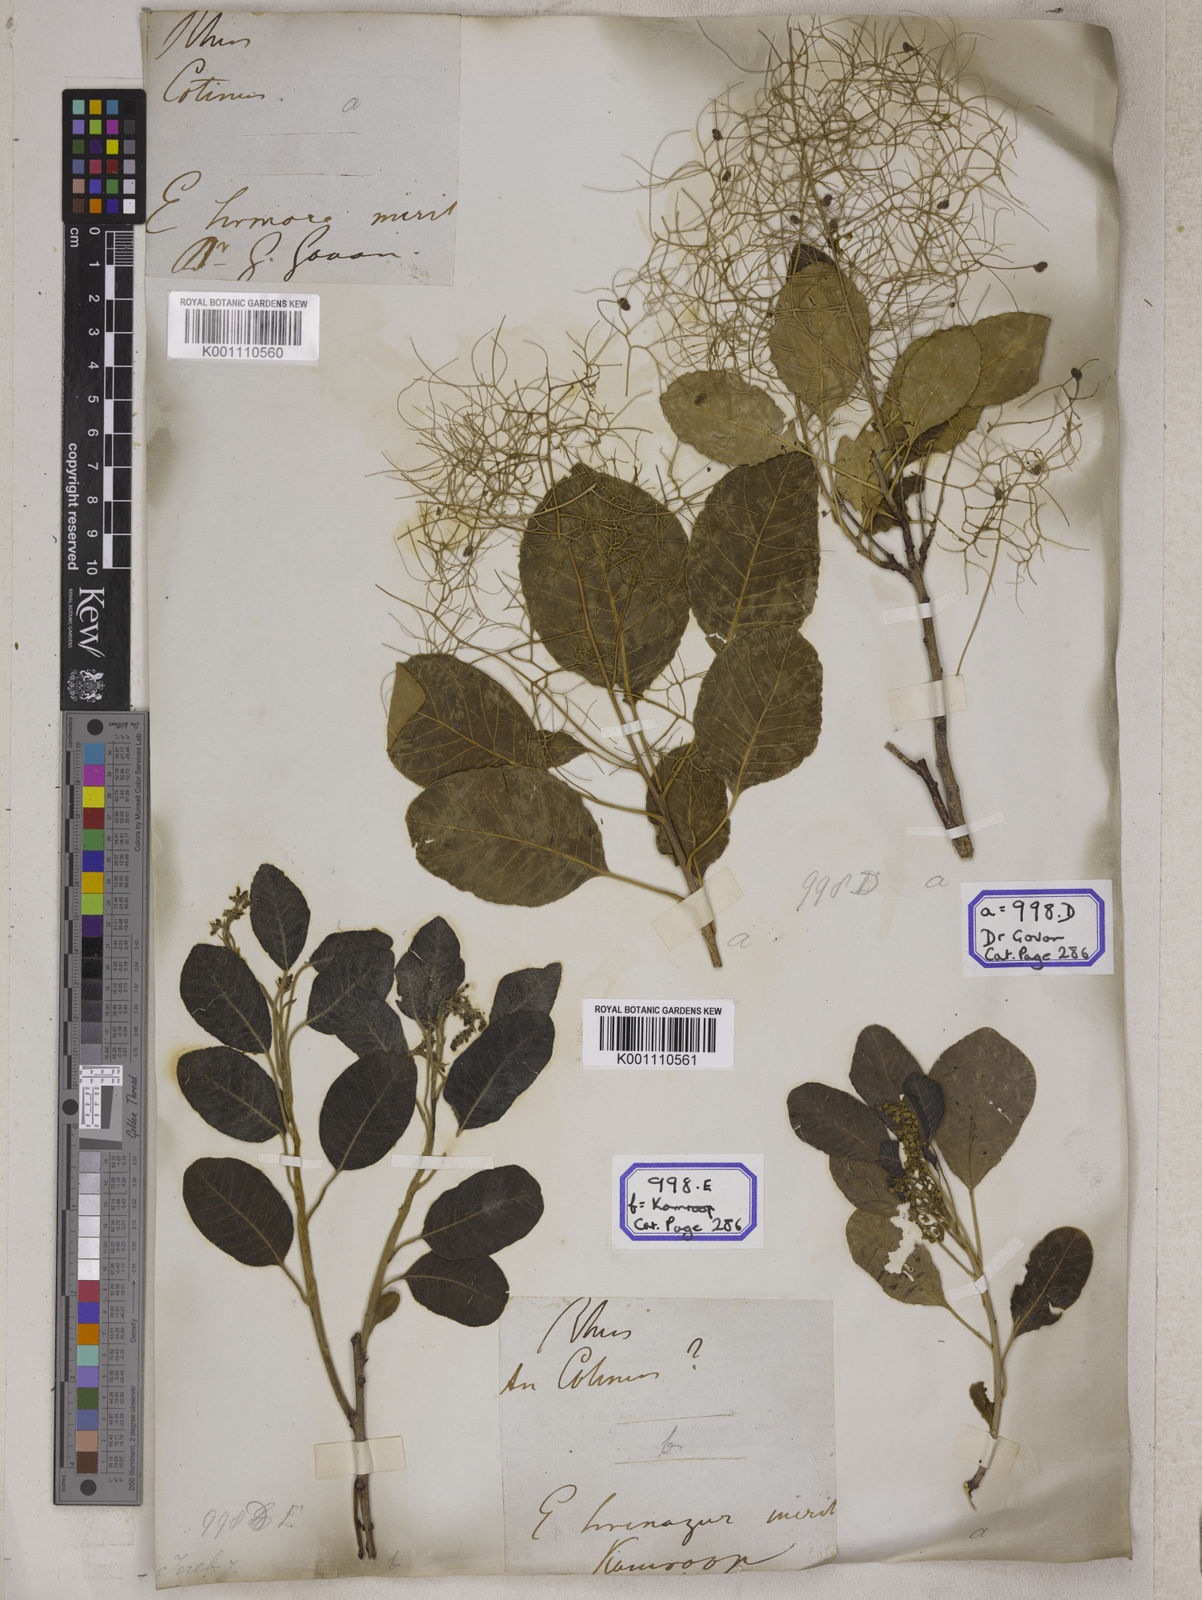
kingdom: Plantae
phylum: Tracheophyta
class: Magnoliopsida
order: Sapindales
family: Anacardiaceae
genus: Rhus
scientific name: Rhus
